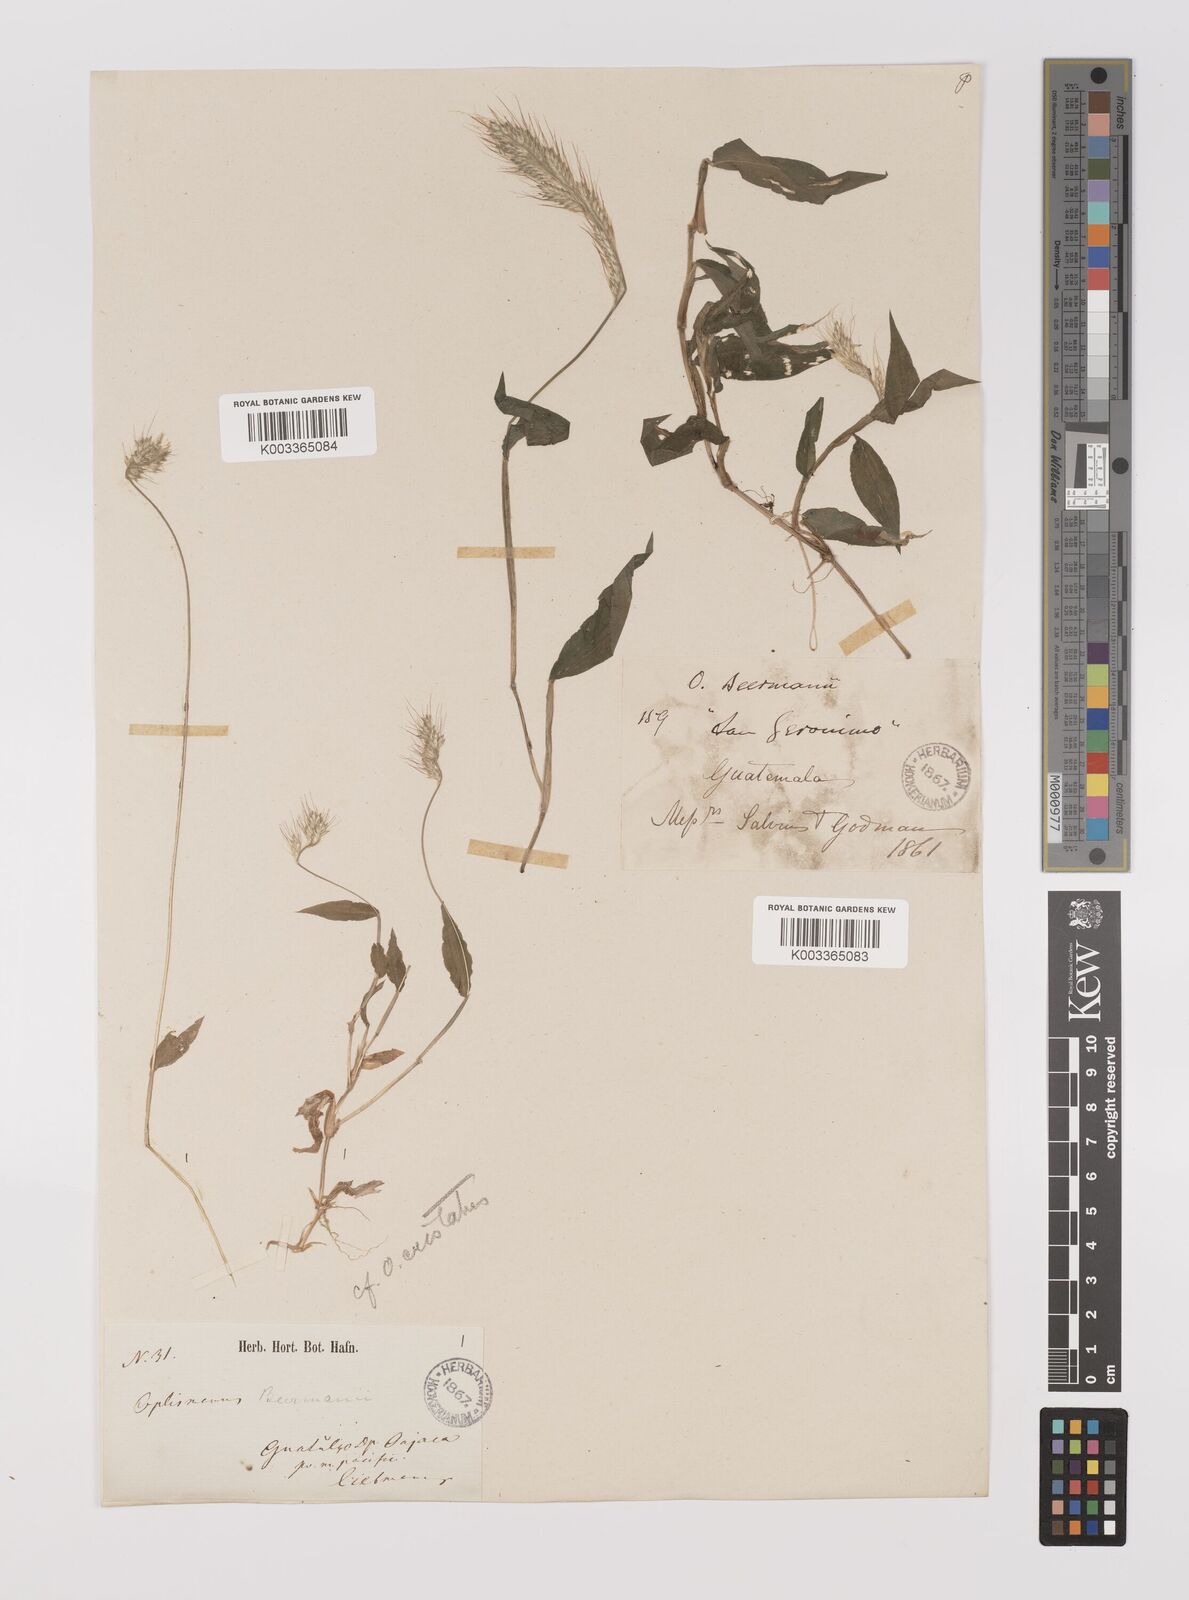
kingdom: Plantae
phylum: Tracheophyta
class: Liliopsida
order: Poales
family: Poaceae
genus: Oplismenus
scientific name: Oplismenus burmanni
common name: Burmann's basketgrass
